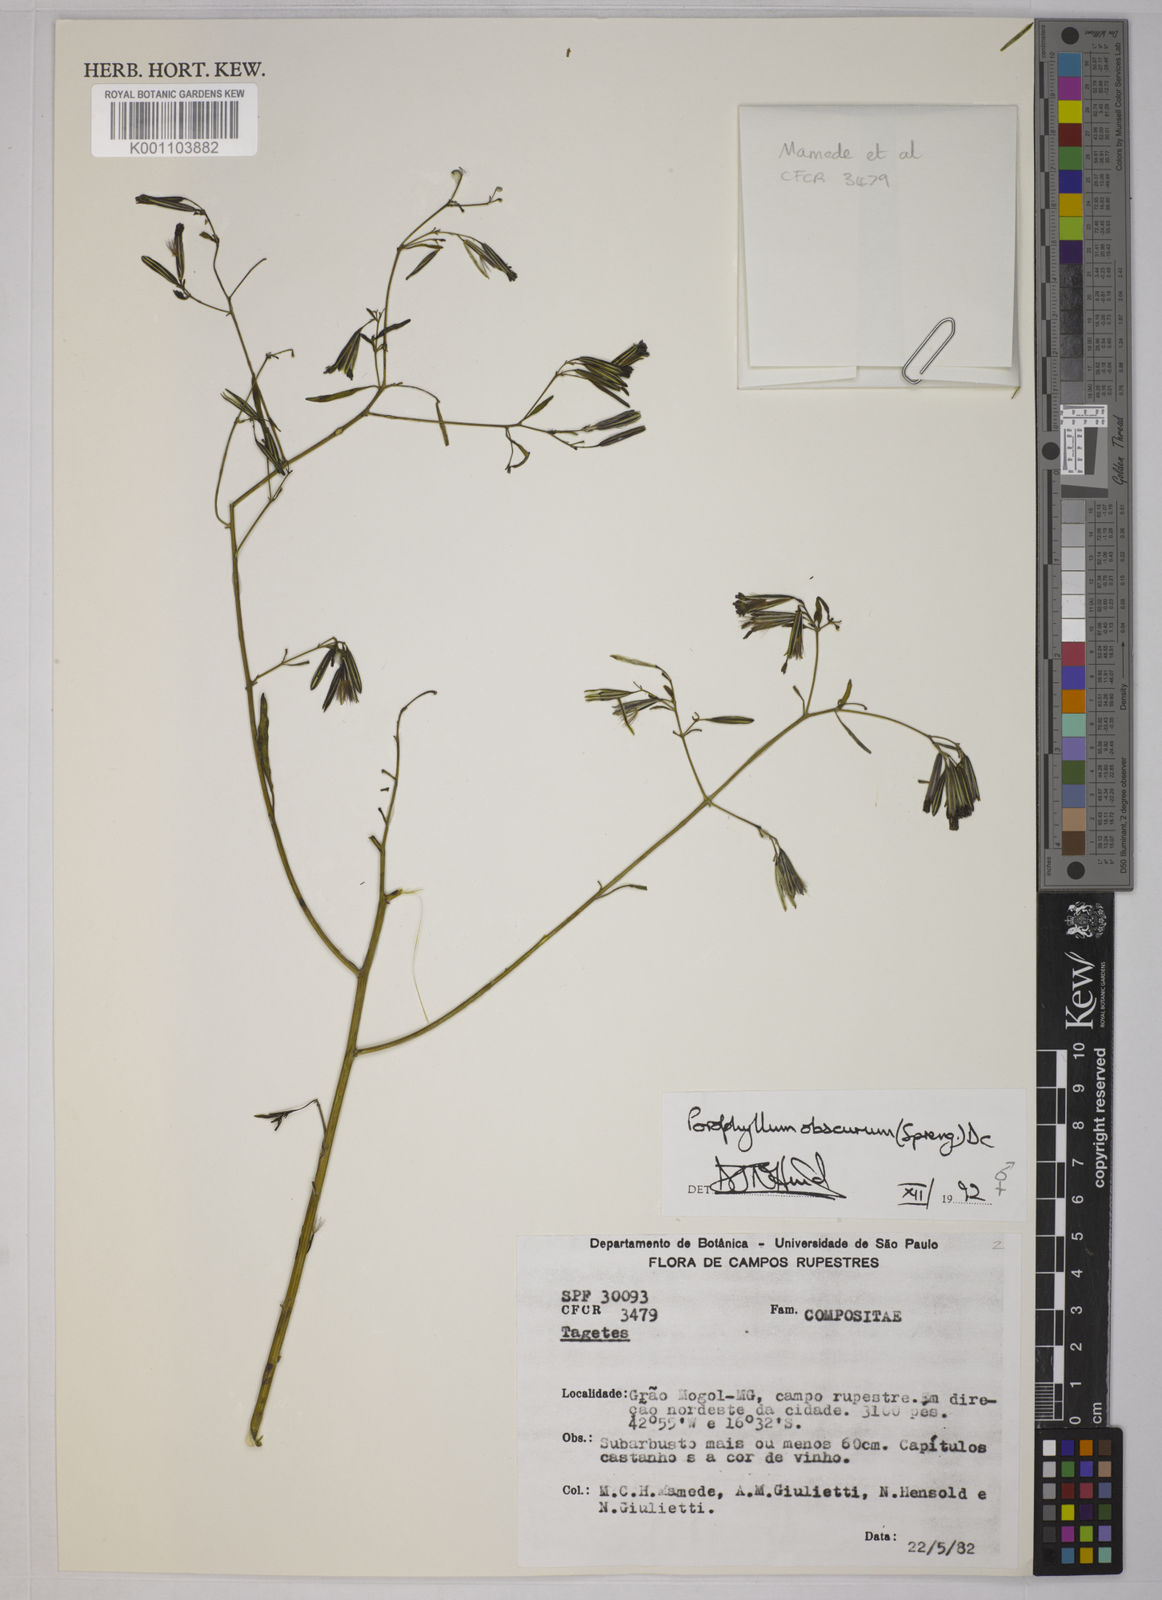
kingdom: Plantae
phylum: Tracheophyta
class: Magnoliopsida
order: Asterales
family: Asteraceae
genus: Porophyllum
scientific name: Porophyllum obscurum
